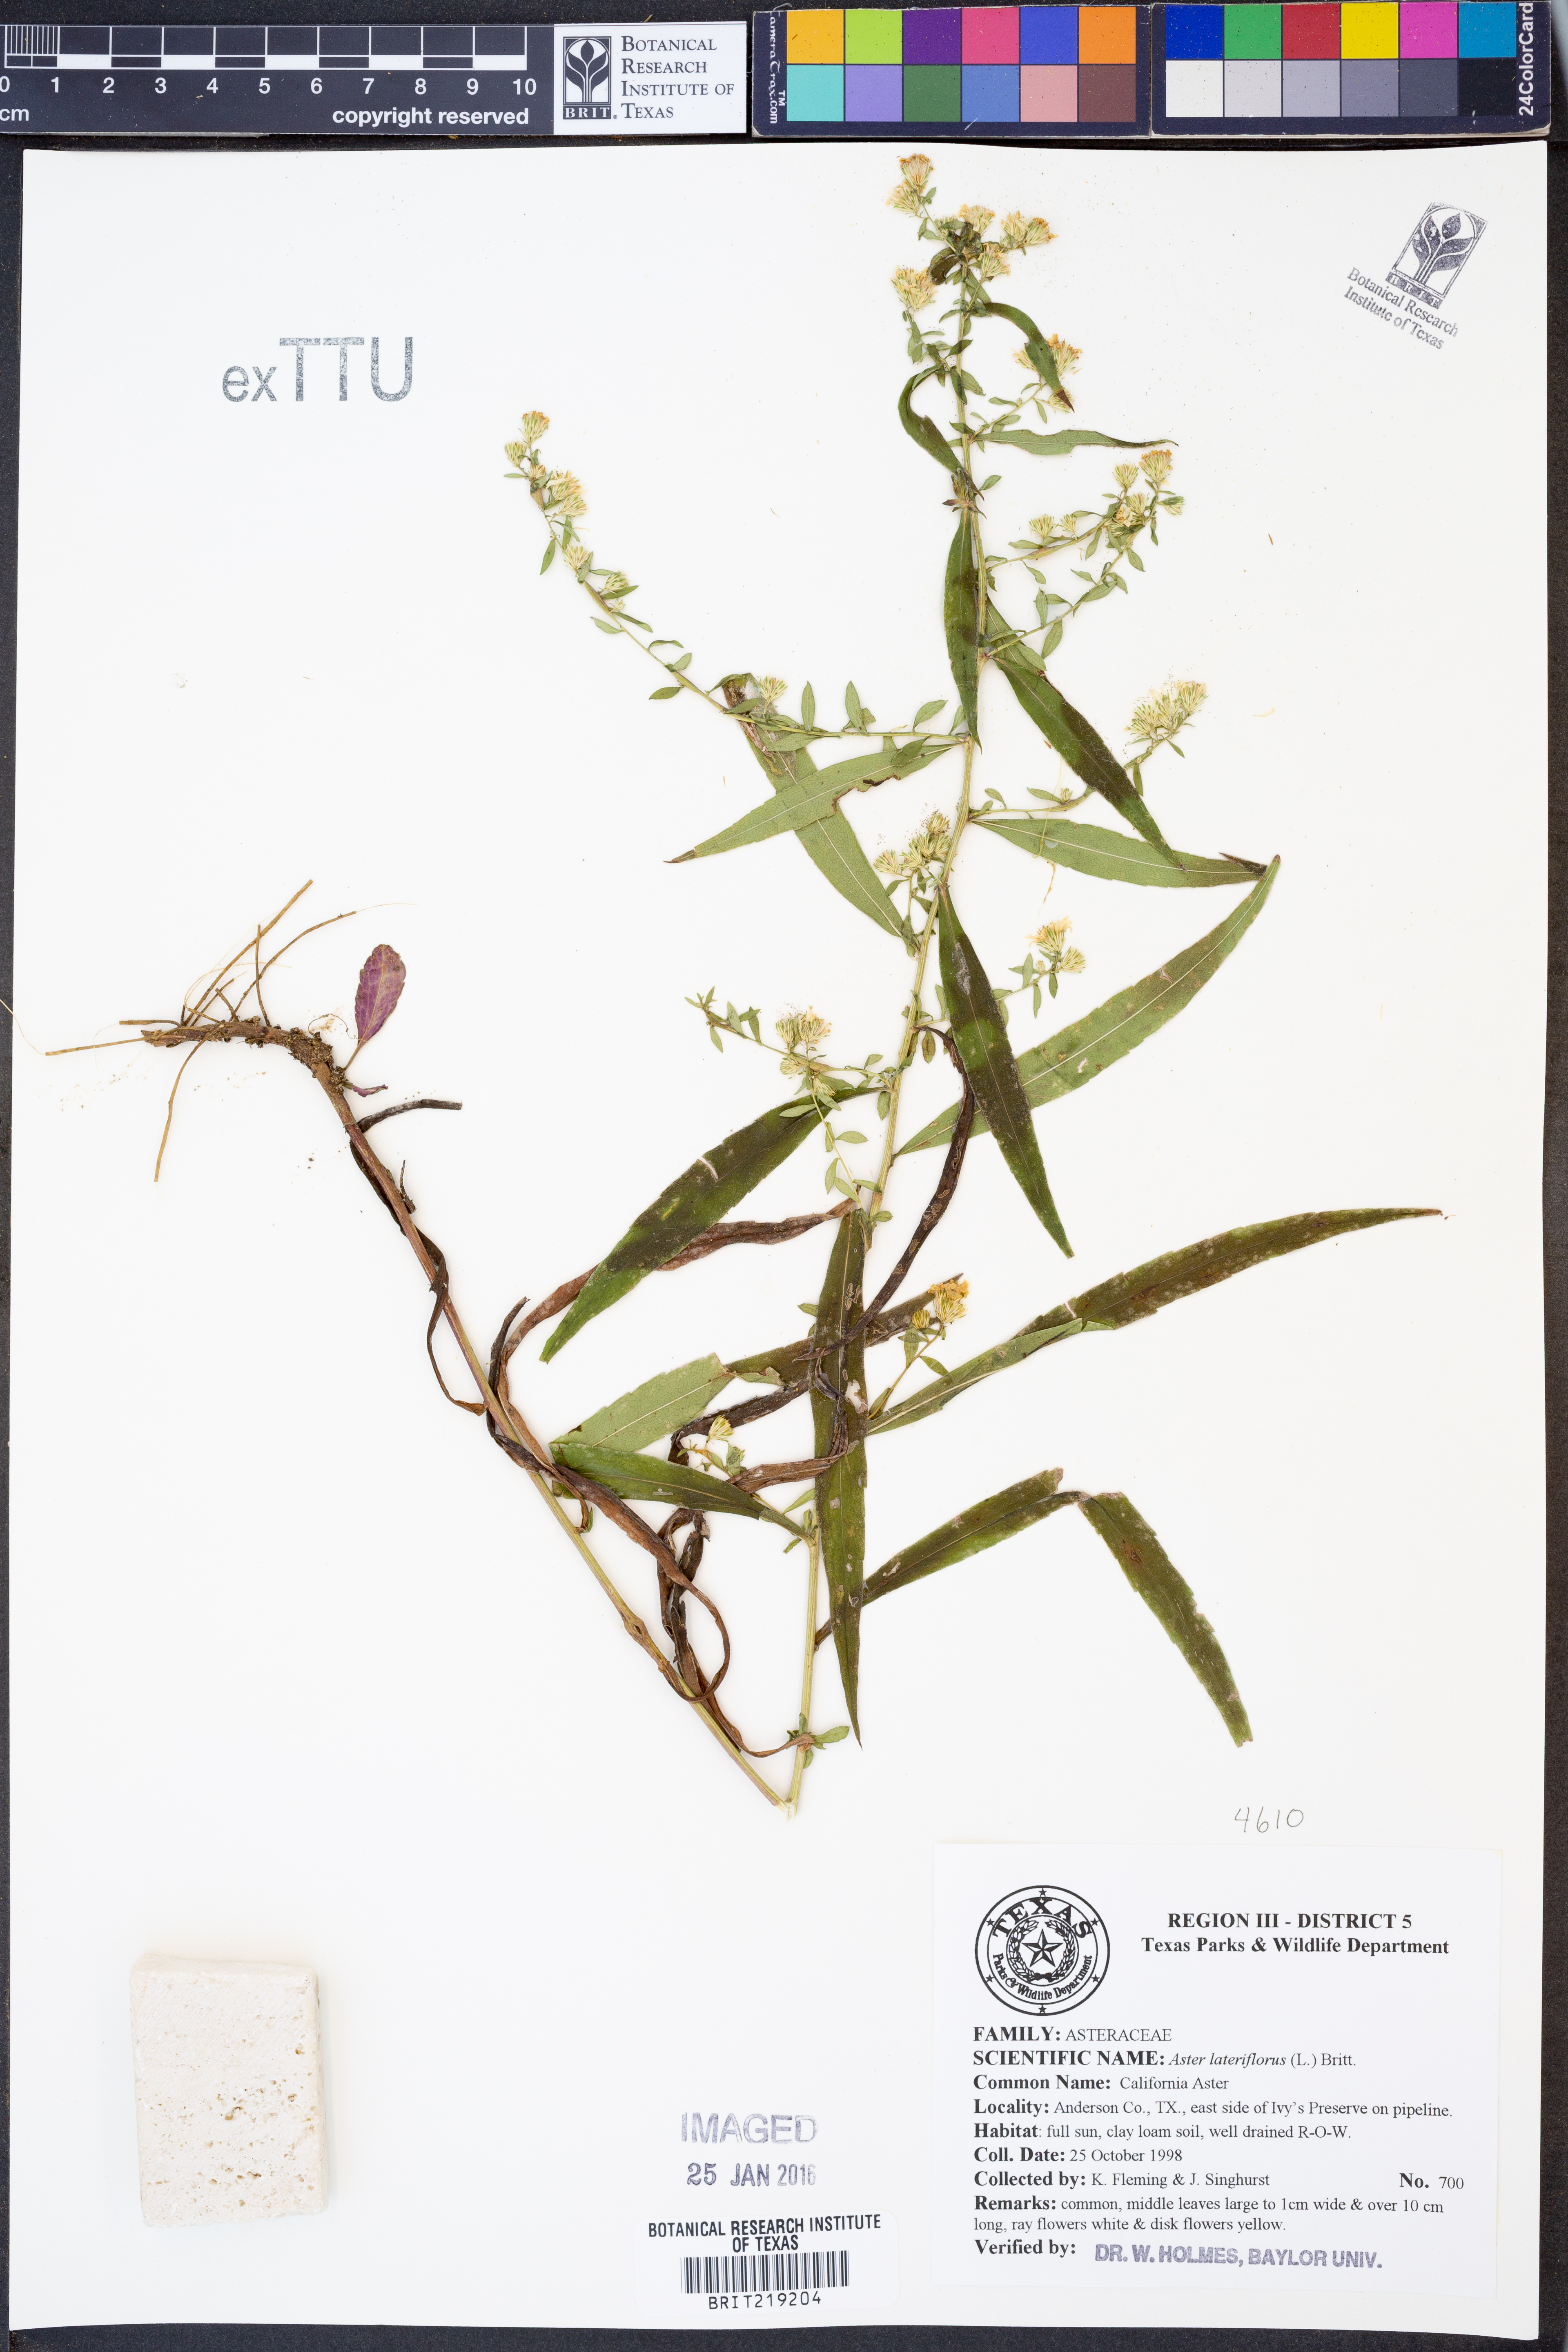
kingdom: Plantae
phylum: Tracheophyta
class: Magnoliopsida
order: Asterales
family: Asteraceae
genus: Symphyotrichum
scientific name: Symphyotrichum lateriflorum
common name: Calico aster
